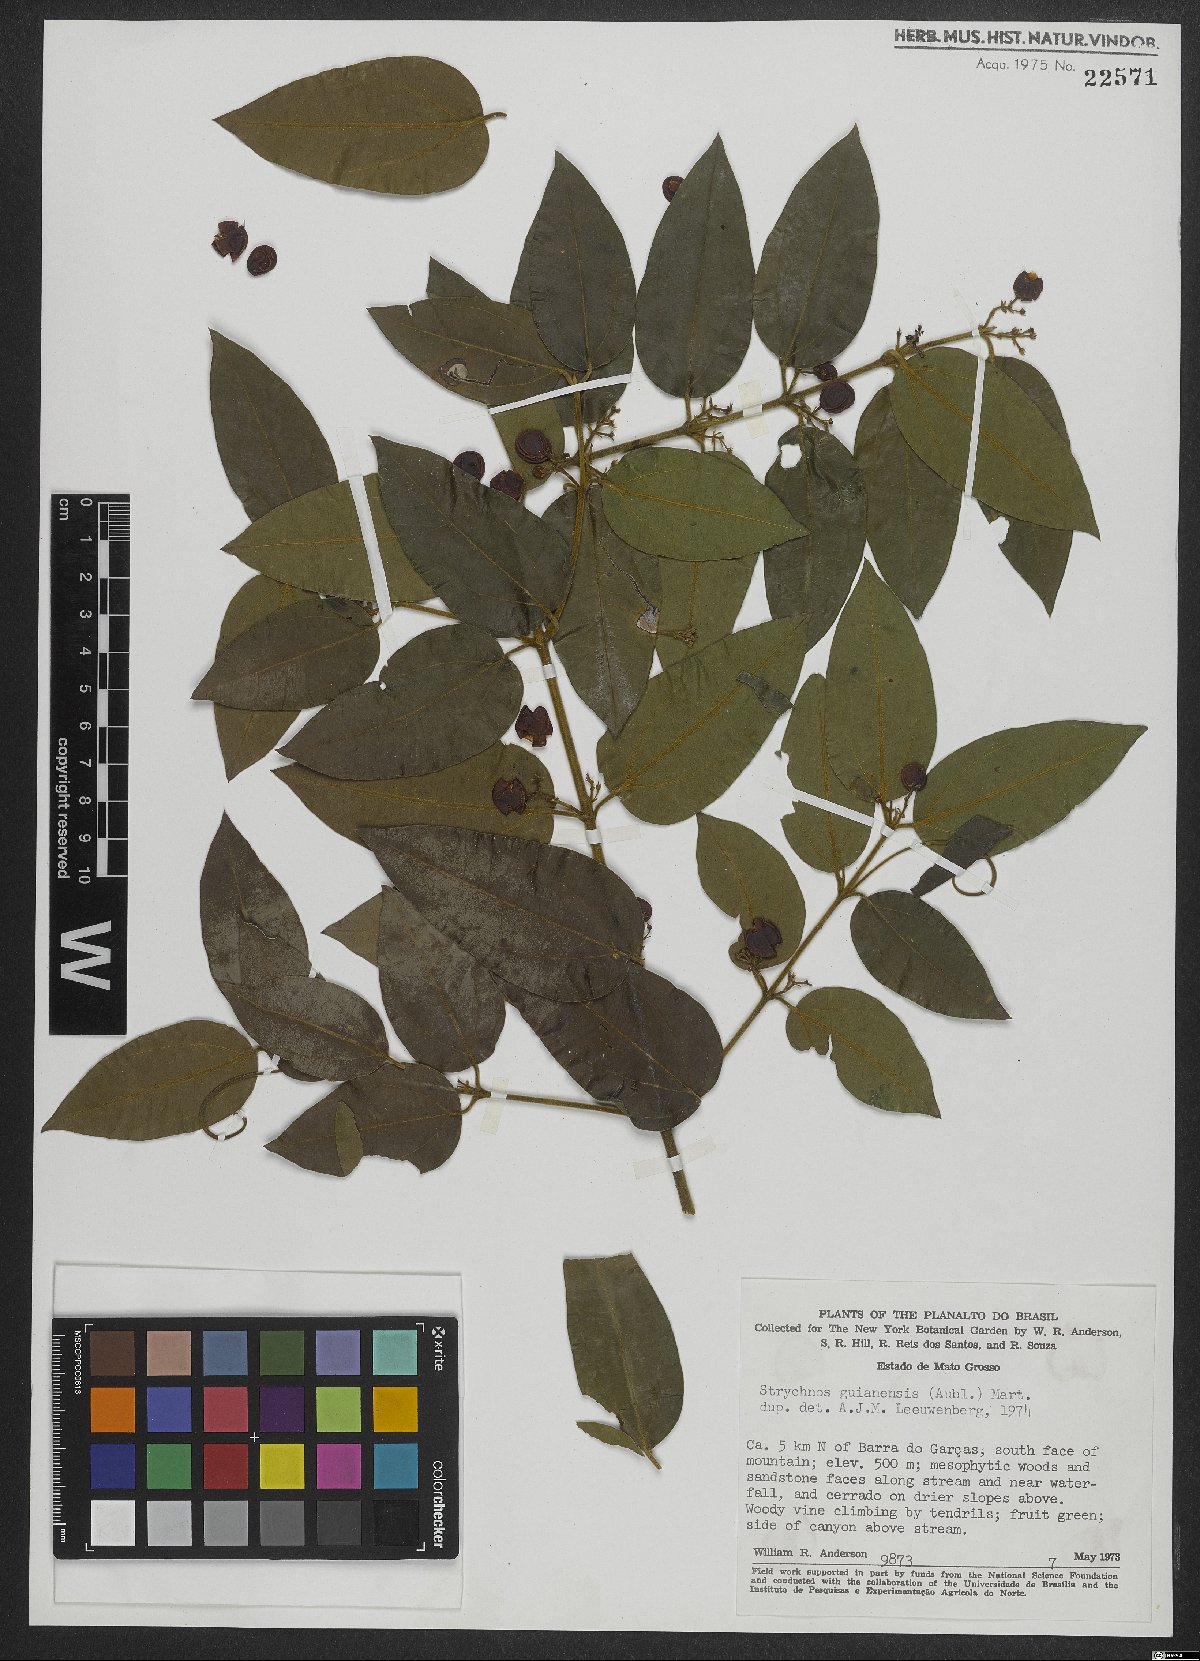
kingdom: Plantae
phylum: Tracheophyta
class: Magnoliopsida
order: Gentianales
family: Loganiaceae
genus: Strychnos
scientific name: Strychnos guianensis
